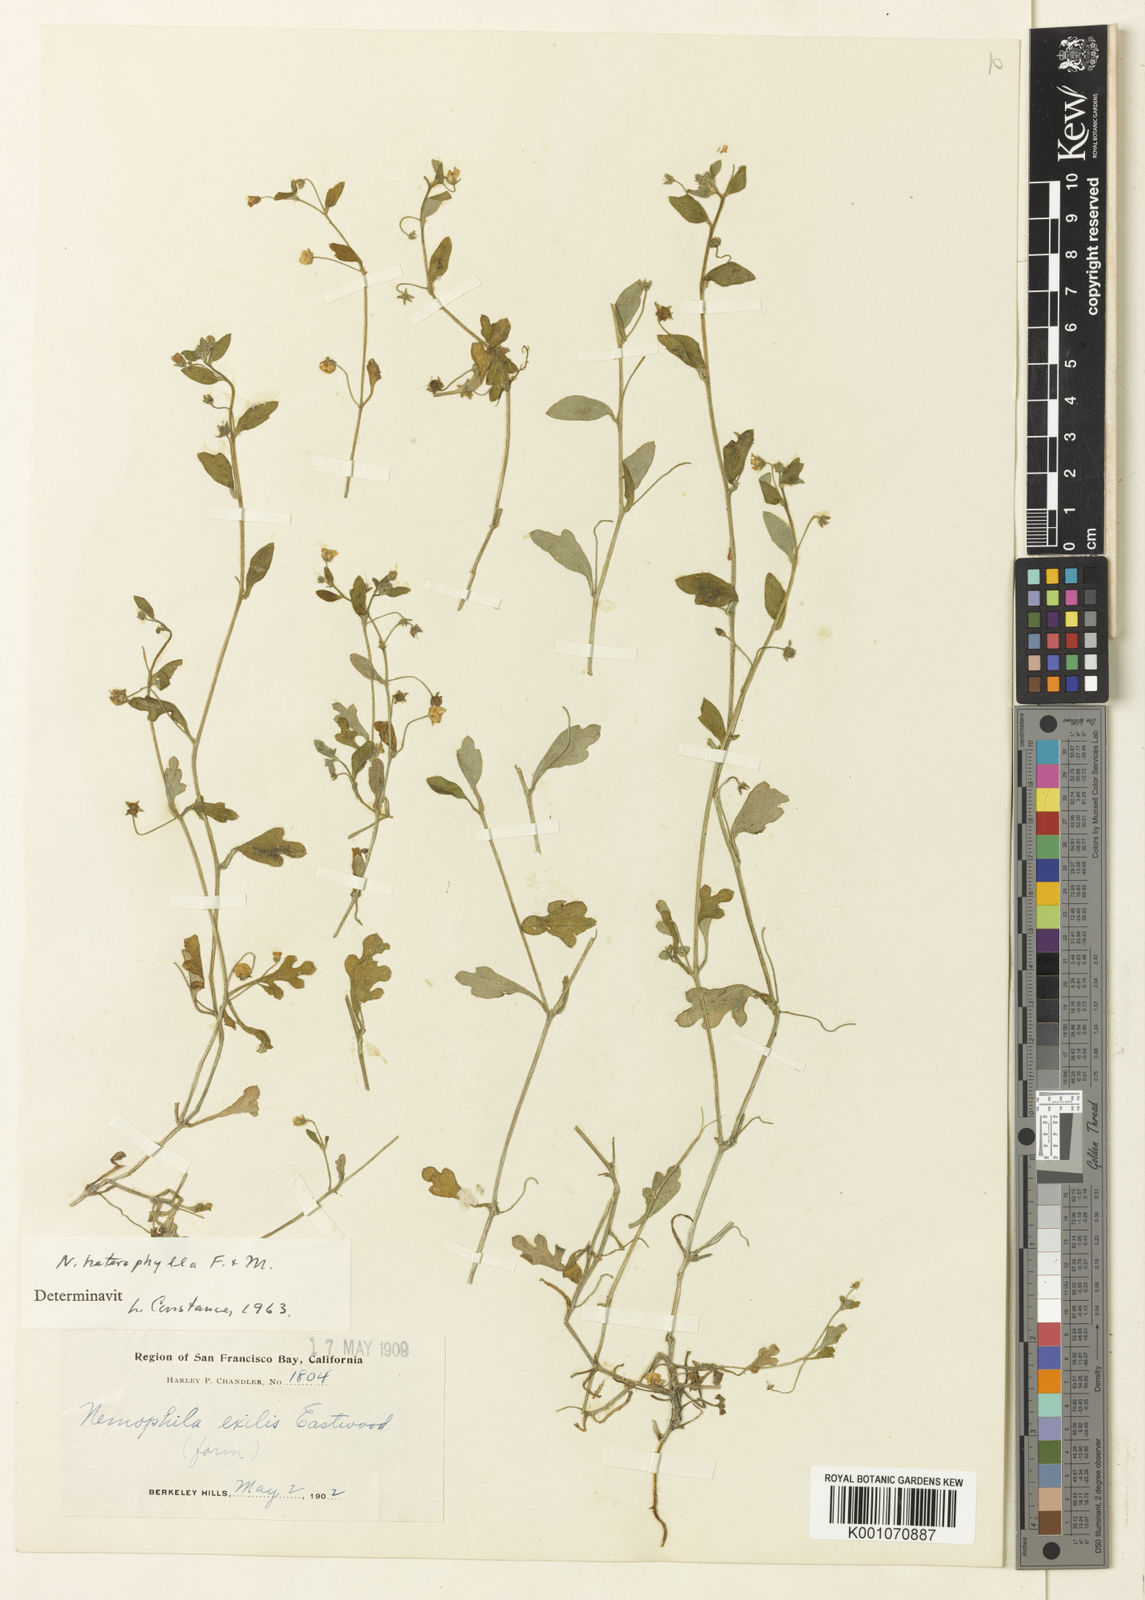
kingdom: Plantae
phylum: Tracheophyta
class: Magnoliopsida
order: Boraginales
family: Hydrophyllaceae
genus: Nemophila
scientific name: Nemophila heterophylla
